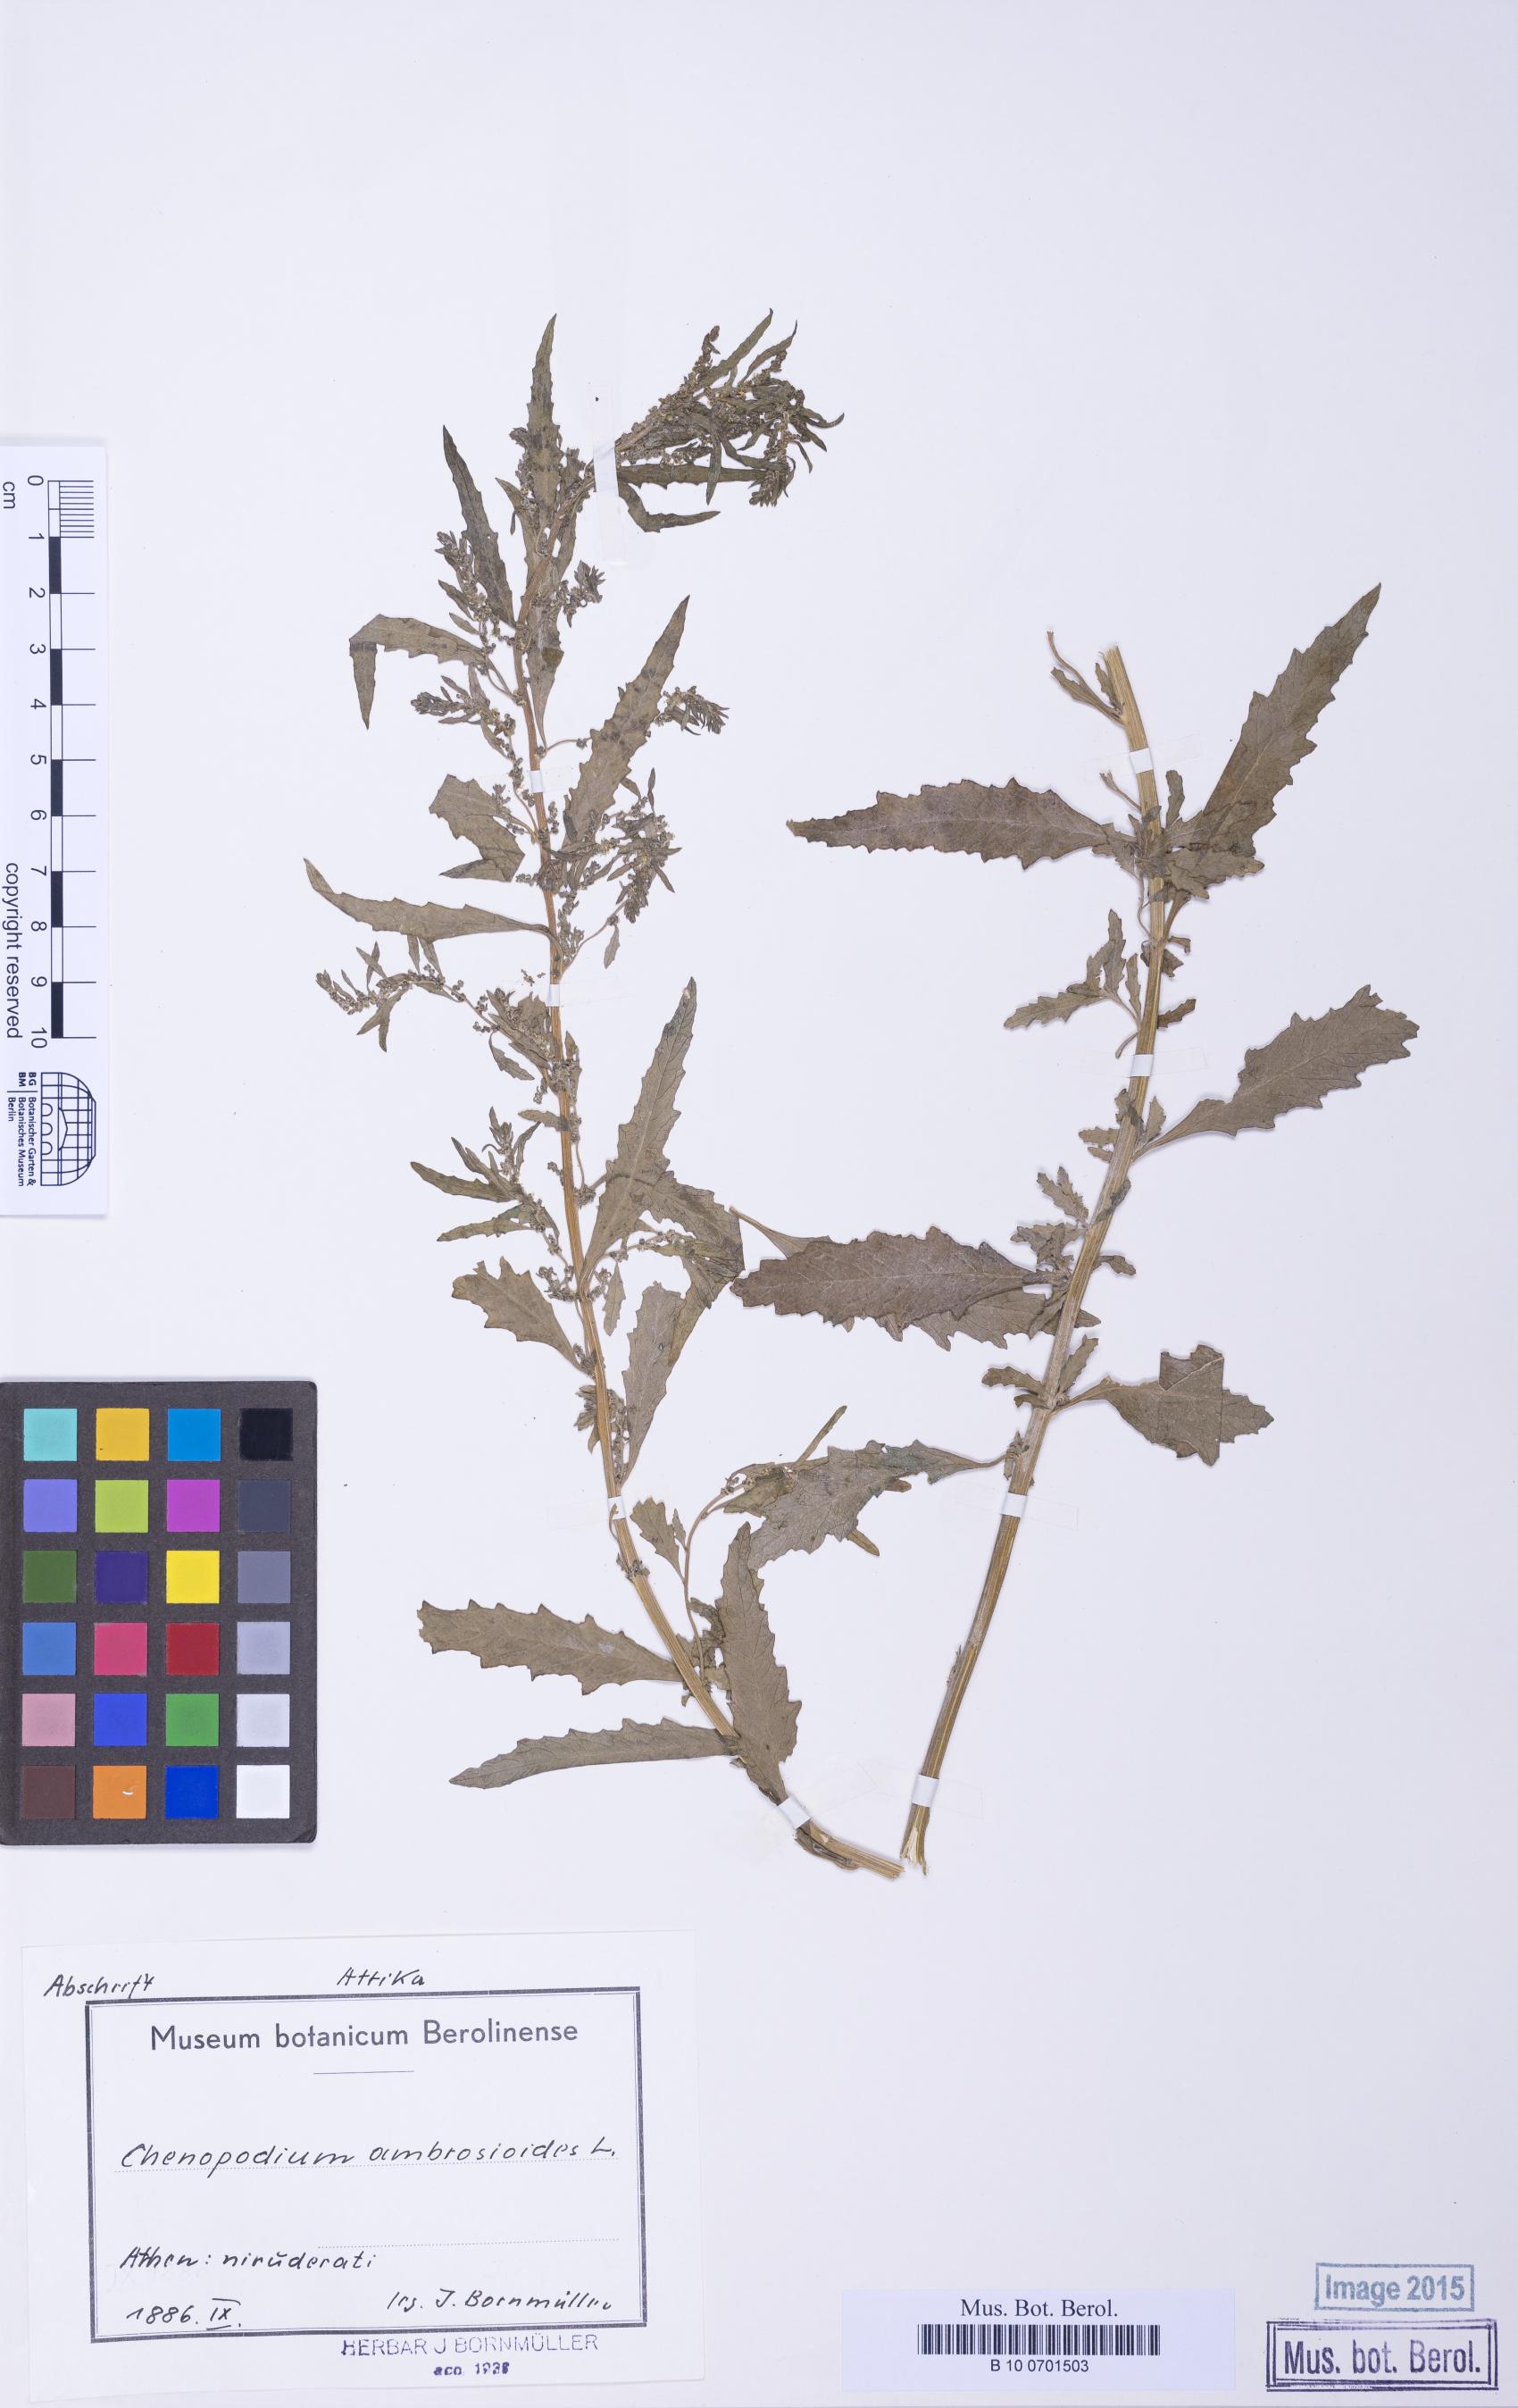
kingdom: Plantae
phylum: Tracheophyta
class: Magnoliopsida
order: Caryophyllales
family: Amaranthaceae
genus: Dysphania
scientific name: Dysphania ambrosioides
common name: Wormseed
